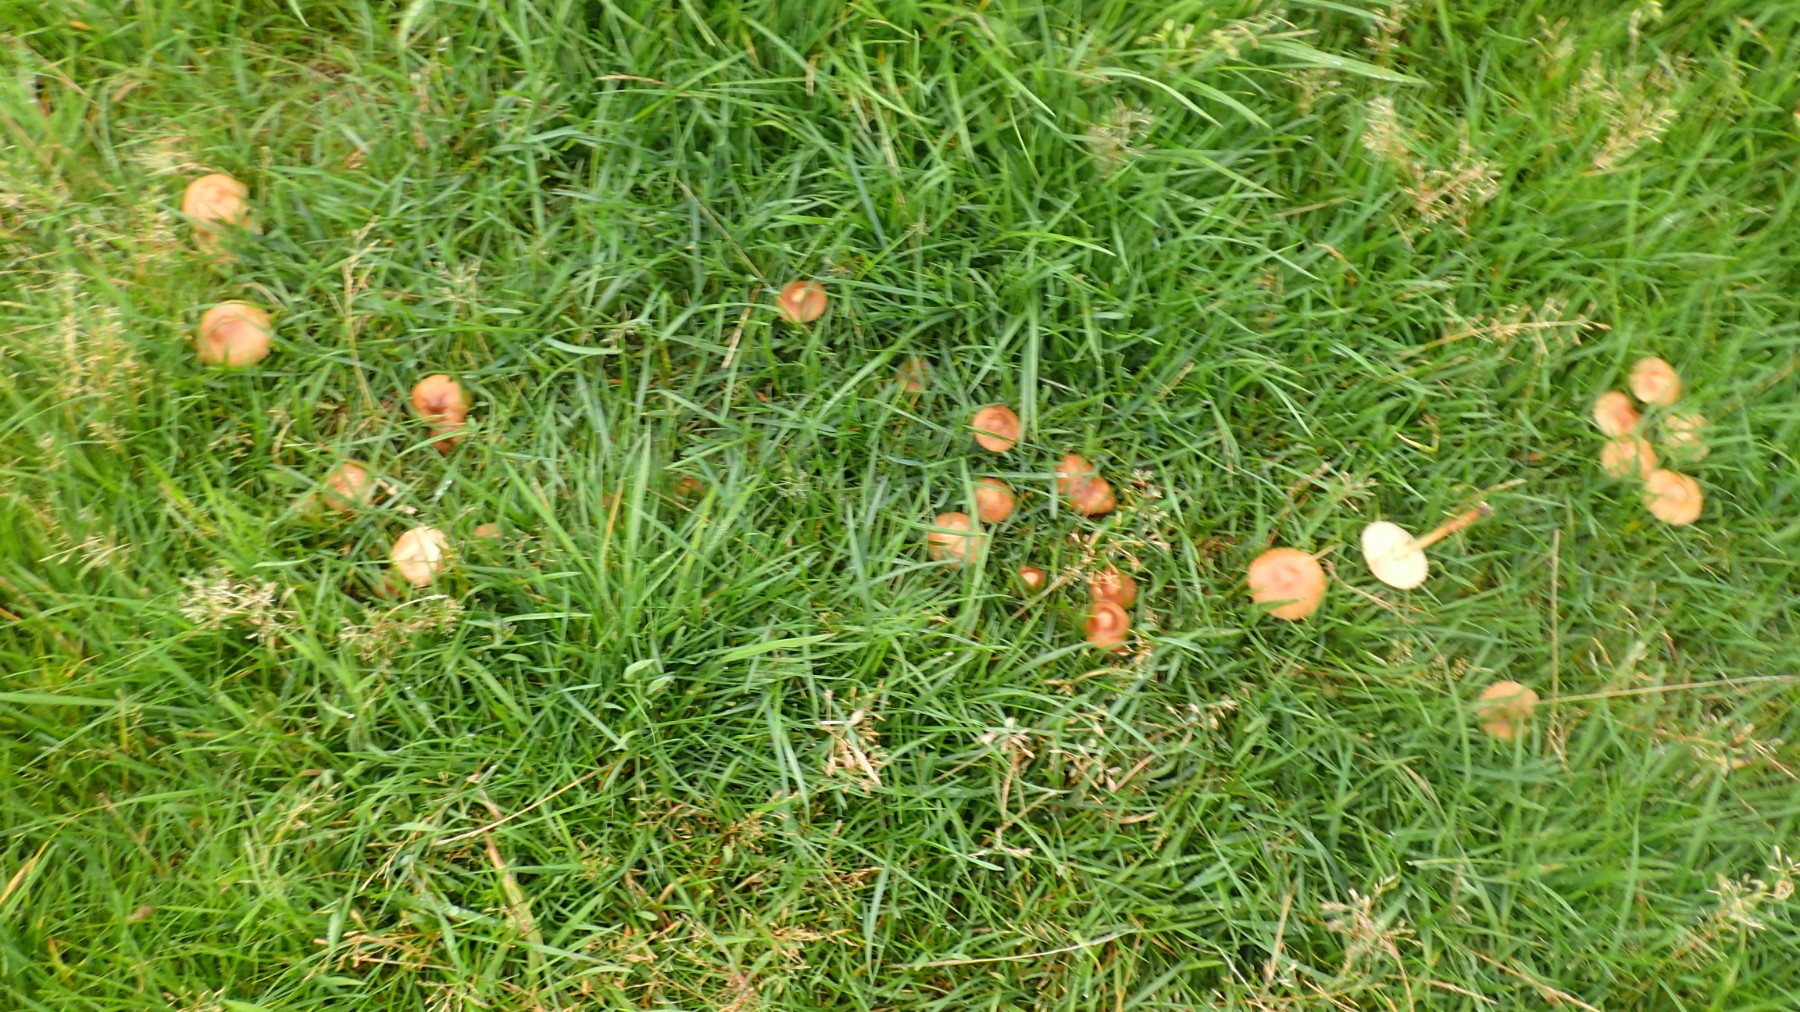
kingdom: Fungi
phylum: Basidiomycota
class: Agaricomycetes
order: Agaricales
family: Marasmiaceae
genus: Marasmius
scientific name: Marasmius oreades
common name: elledans-bruskhat
